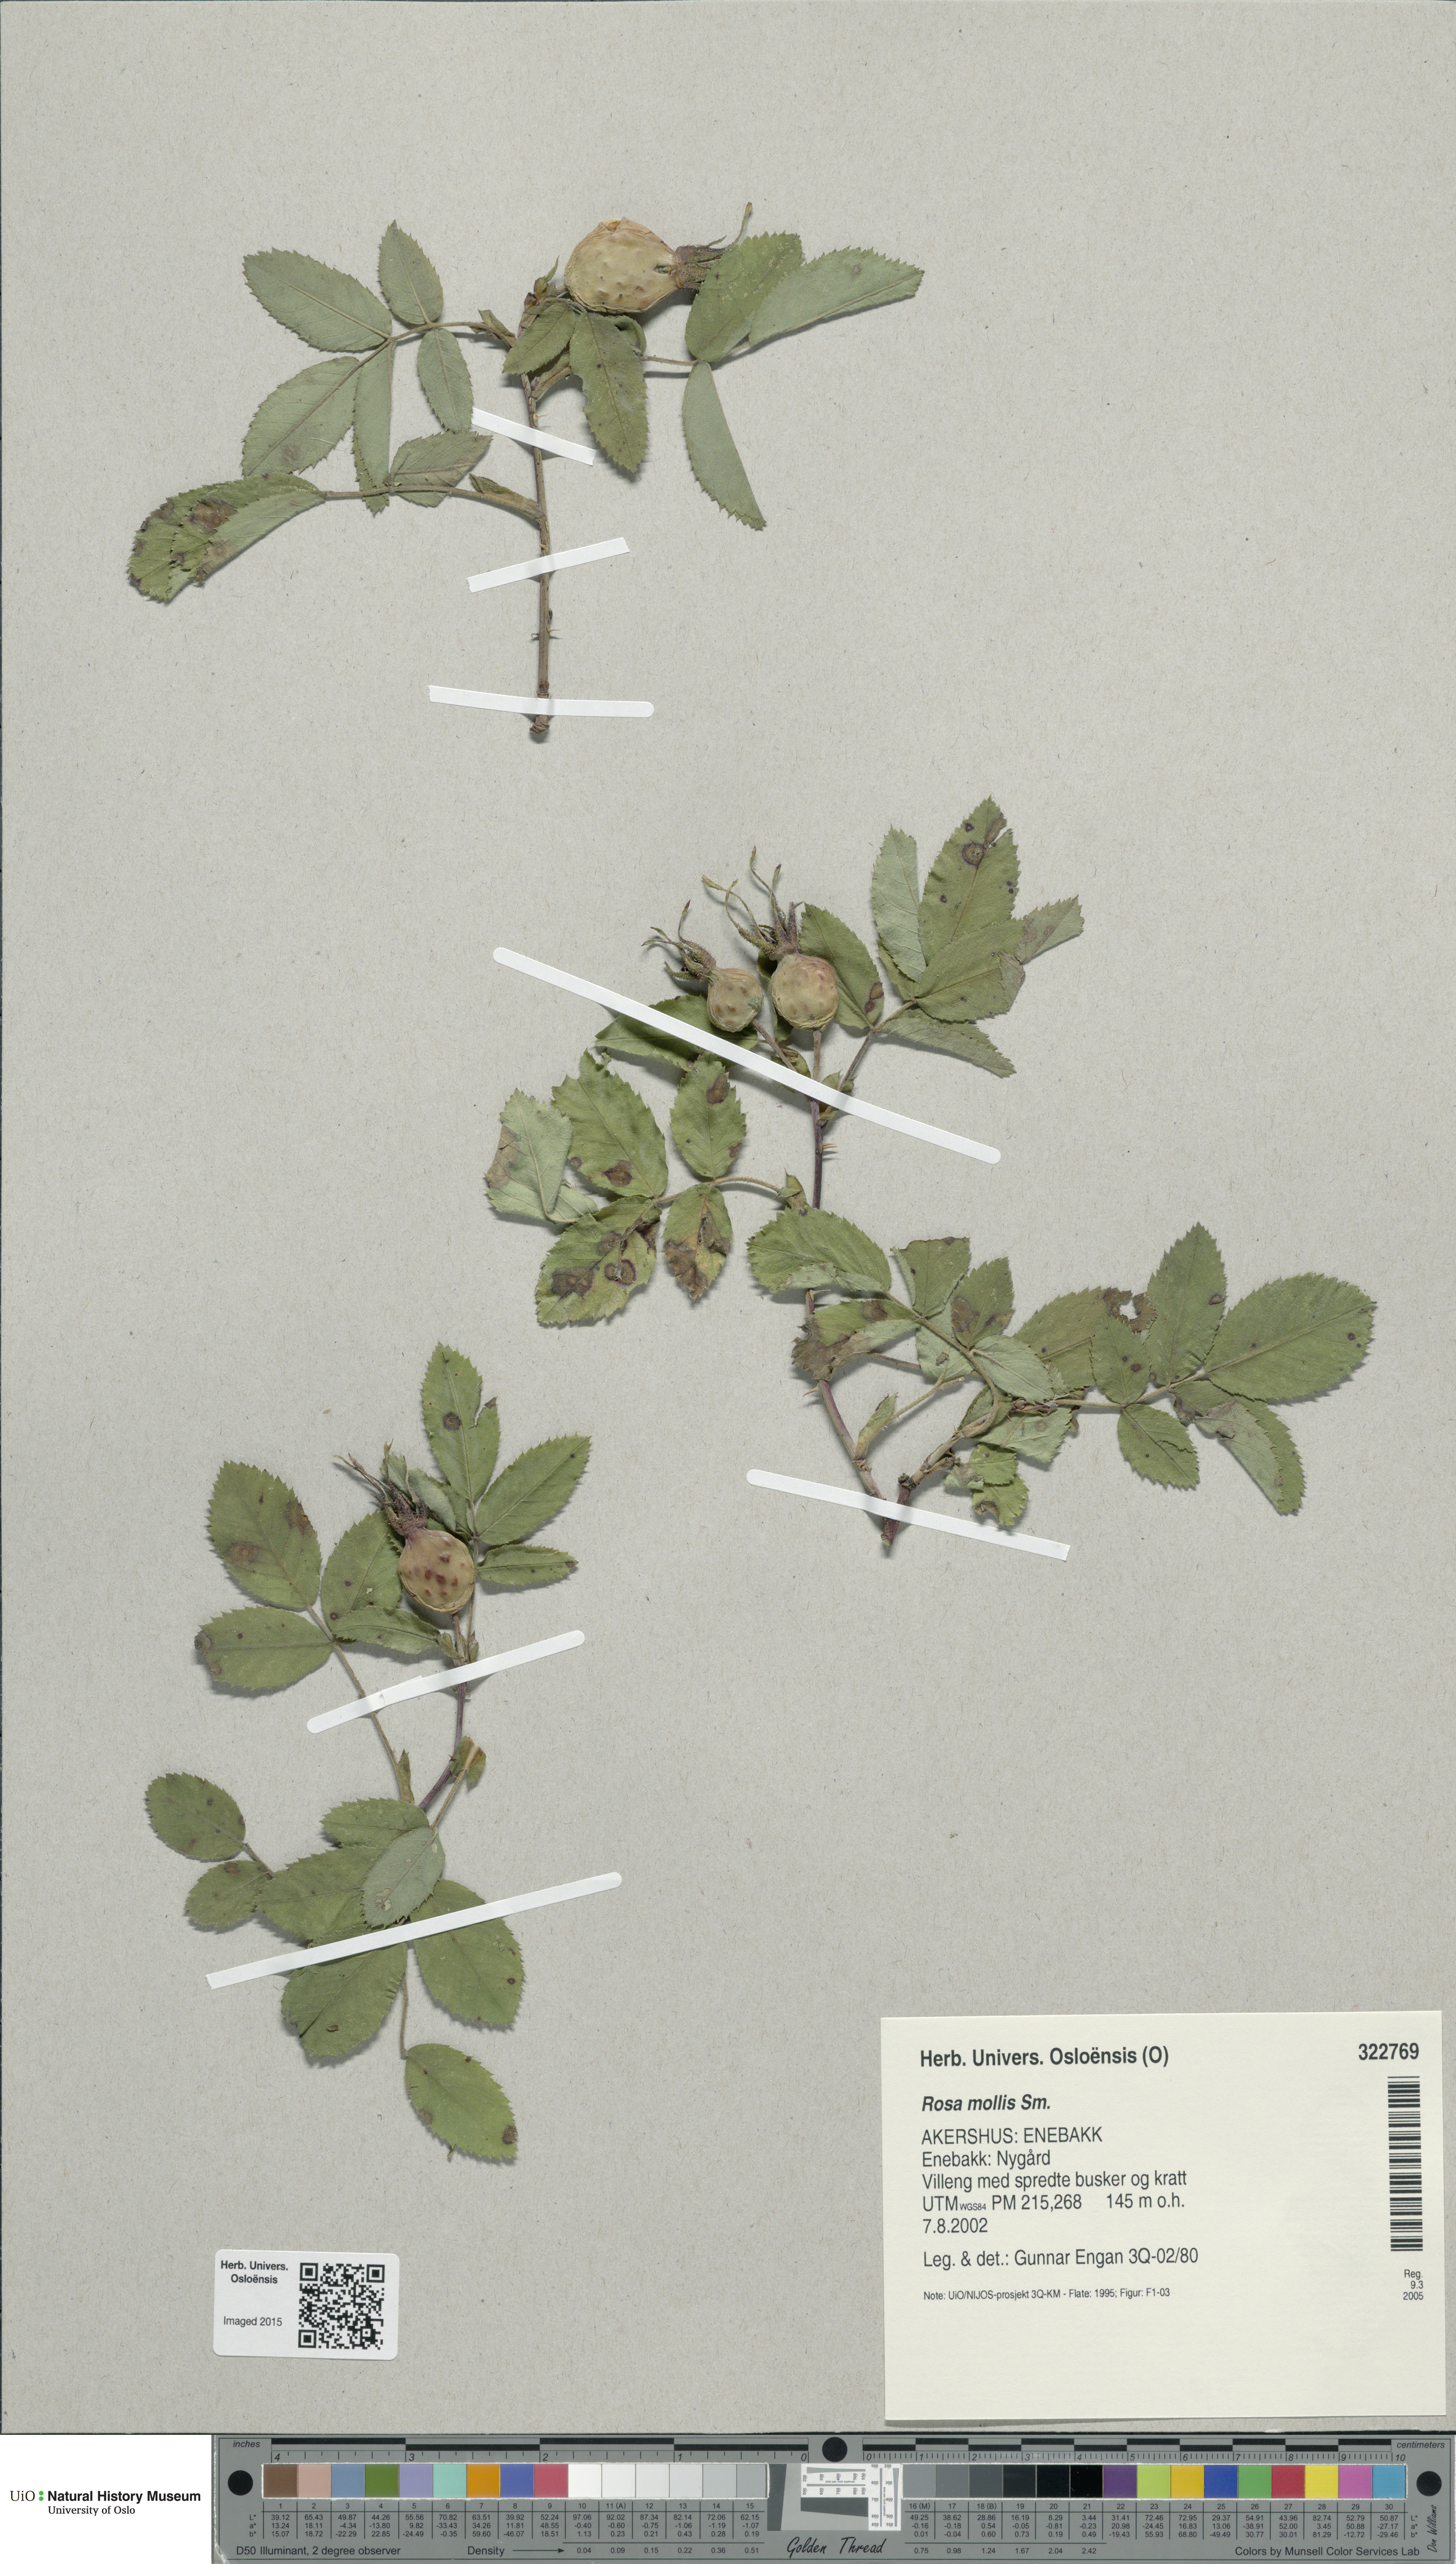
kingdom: Plantae
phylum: Tracheophyta
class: Magnoliopsida
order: Rosales
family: Rosaceae
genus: Rosa
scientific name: Rosa mollis
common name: Rose
